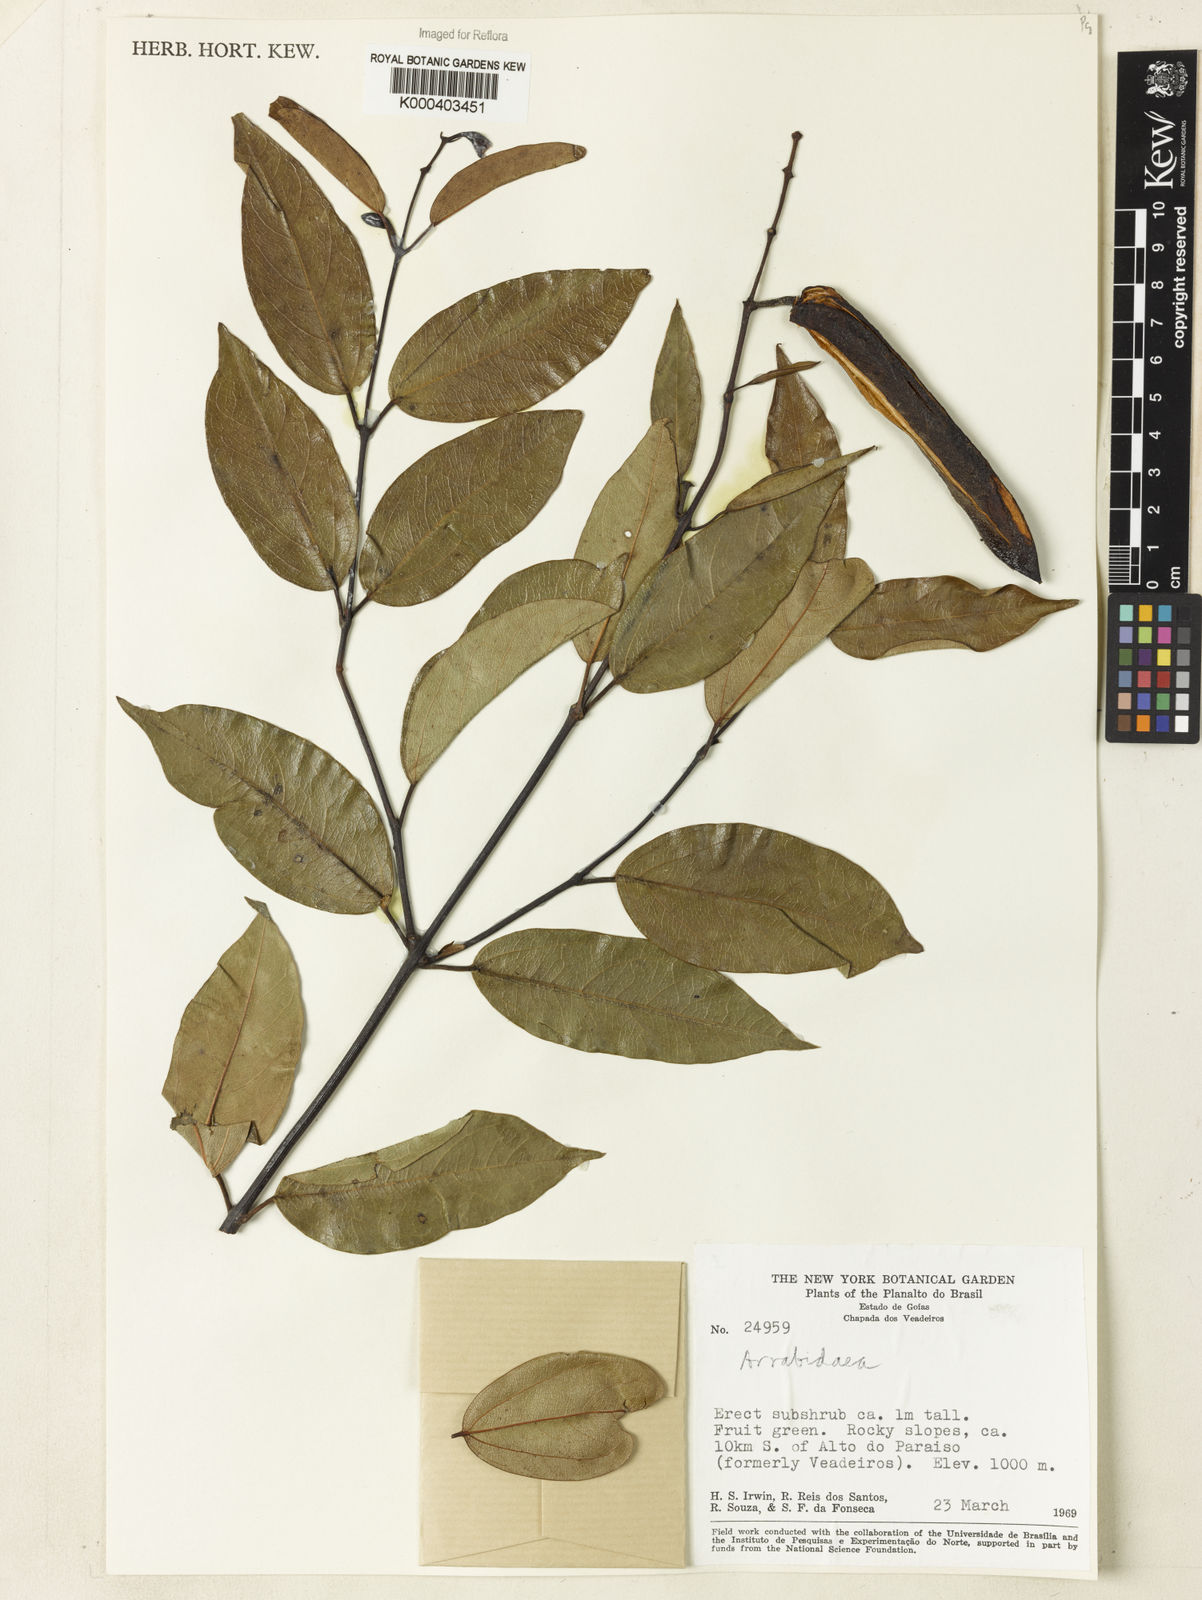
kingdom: Plantae
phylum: Tracheophyta
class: Magnoliopsida
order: Rosales
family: Rhamnaceae
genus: Arrabidaea
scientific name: Arrabidaea
